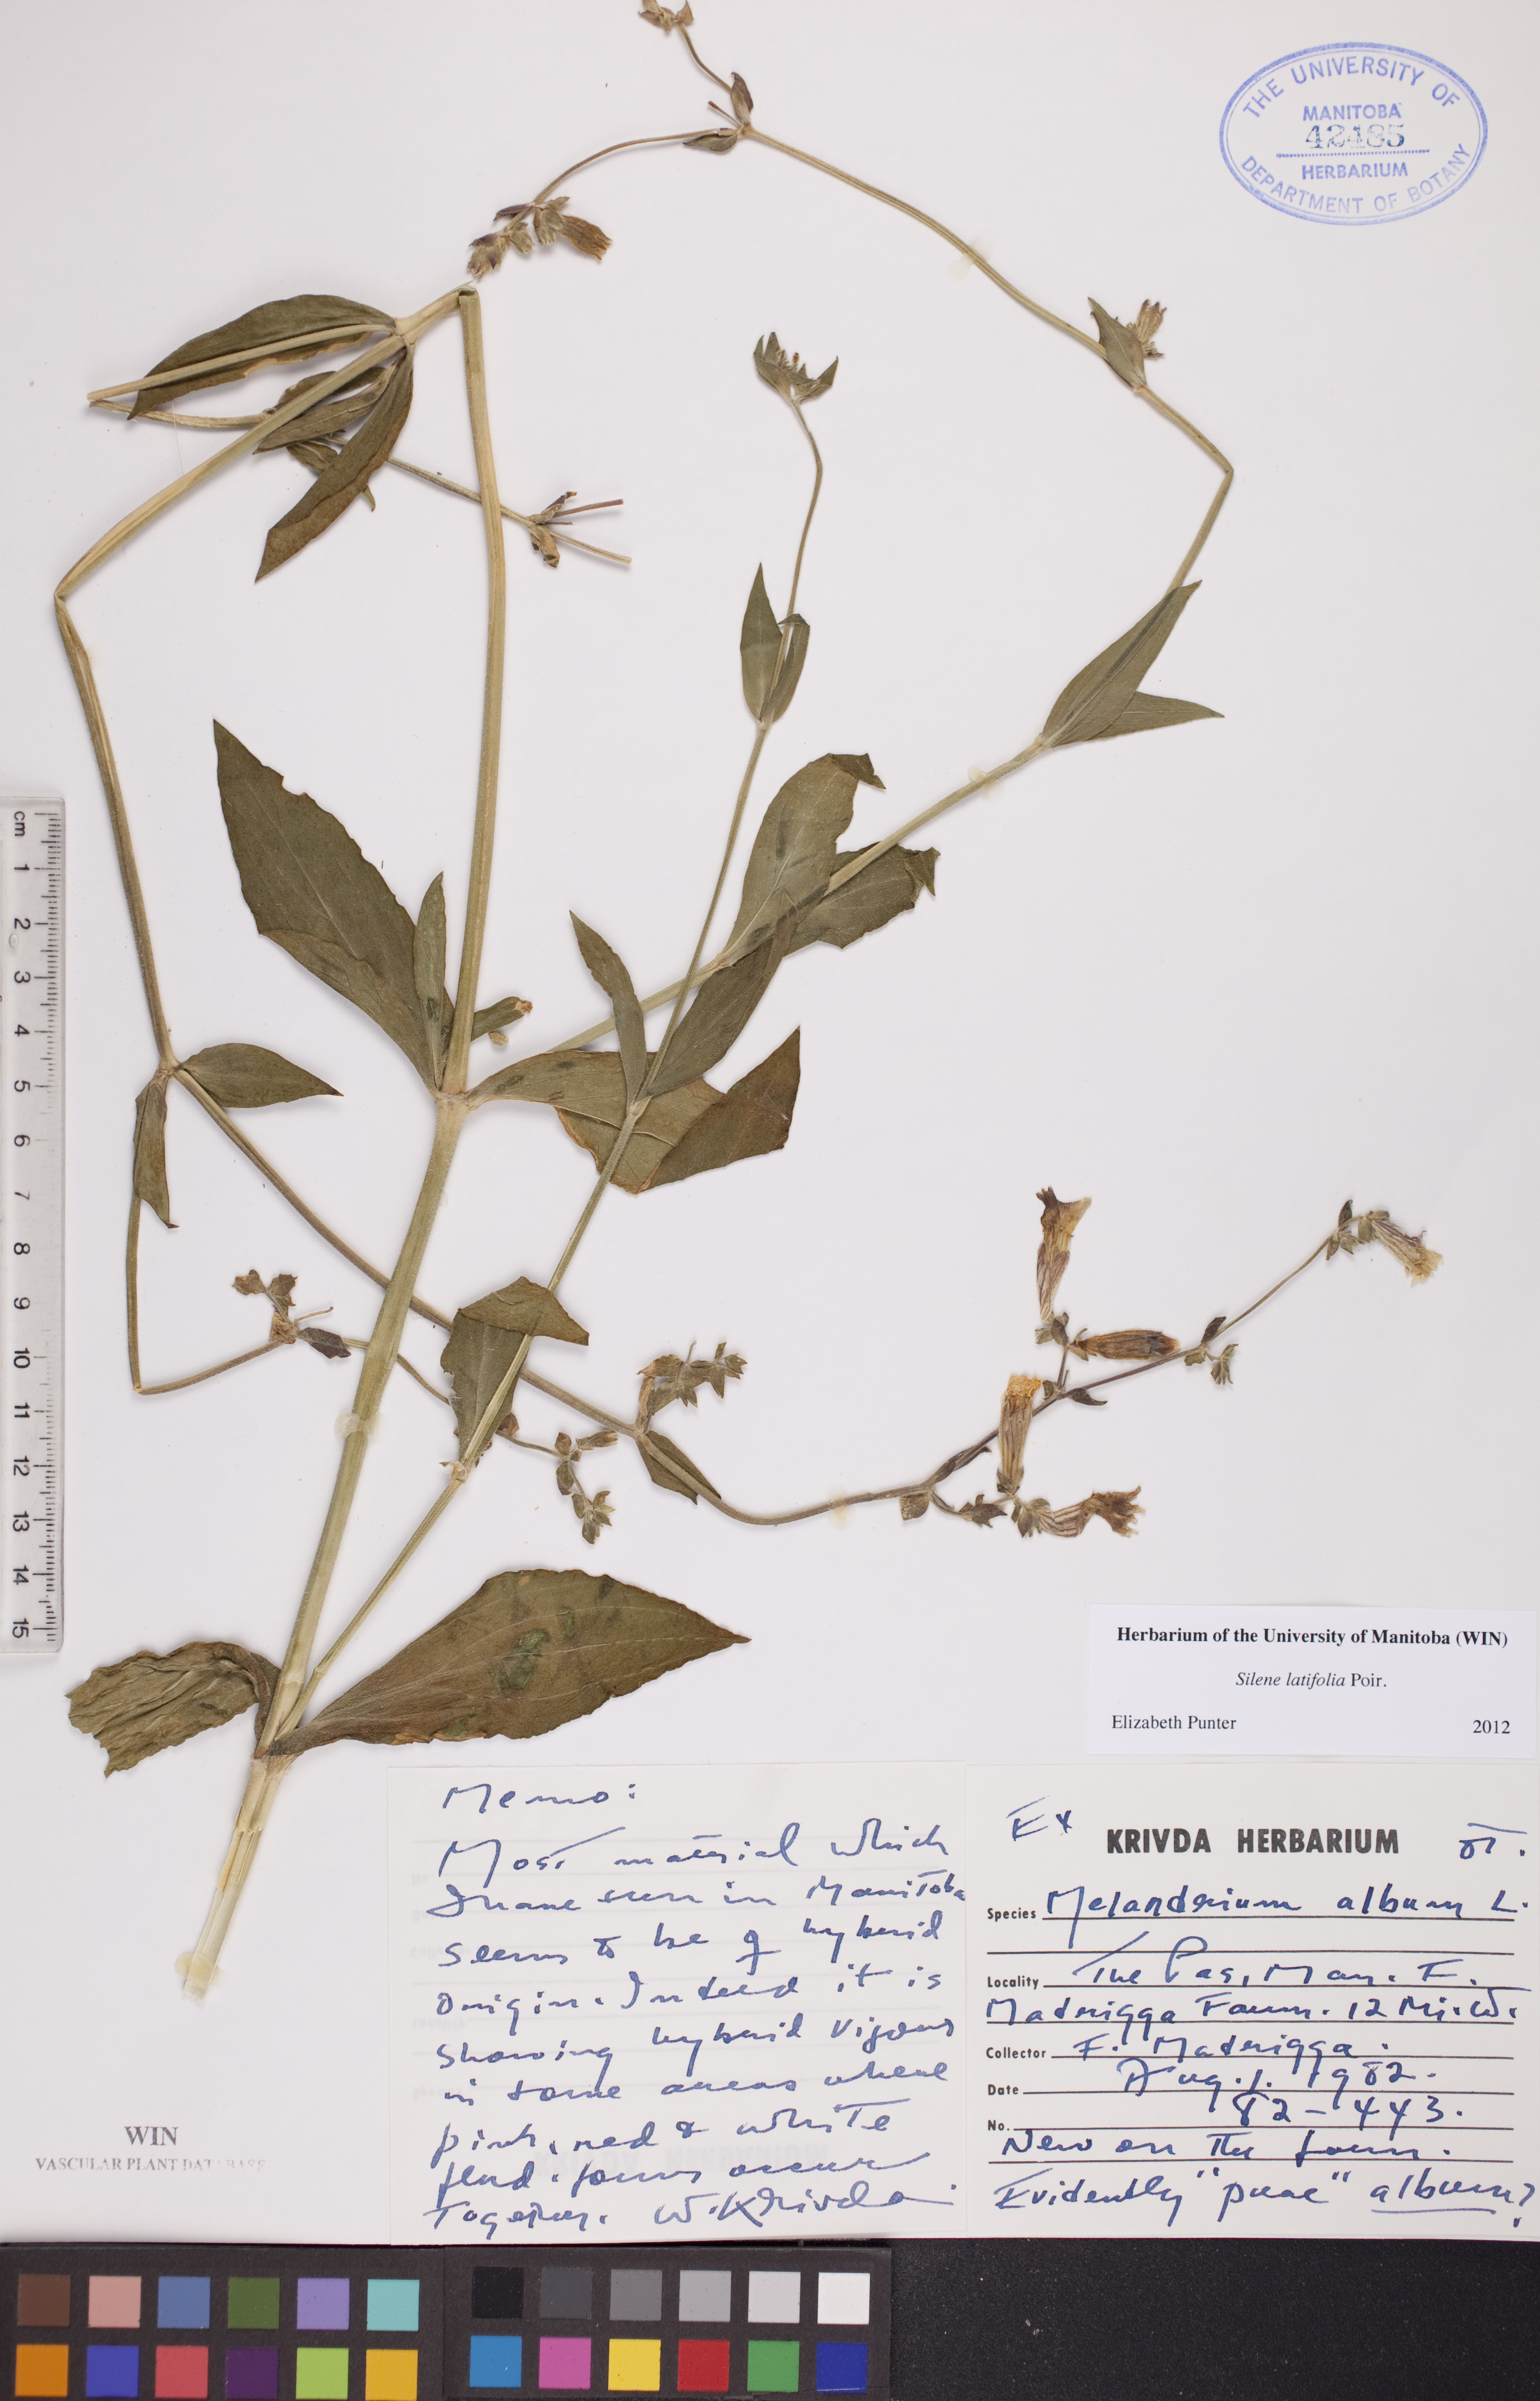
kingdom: Plantae
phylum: Tracheophyta
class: Magnoliopsida
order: Caryophyllales
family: Caryophyllaceae
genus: Silene
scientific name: Silene latifolia
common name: White campion
